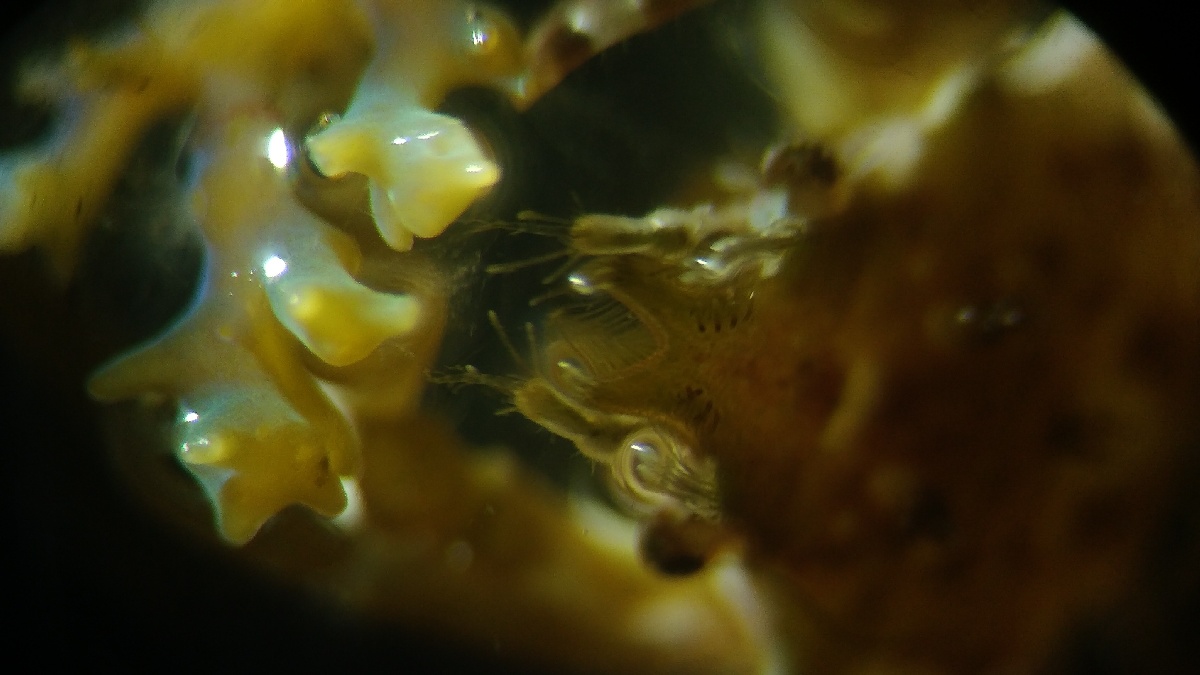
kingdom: Animalia
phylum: Arthropoda
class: Malacostraca
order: Decapoda
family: Epialtidae
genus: Acanthonyx
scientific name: Acanthonyx lunulatus
